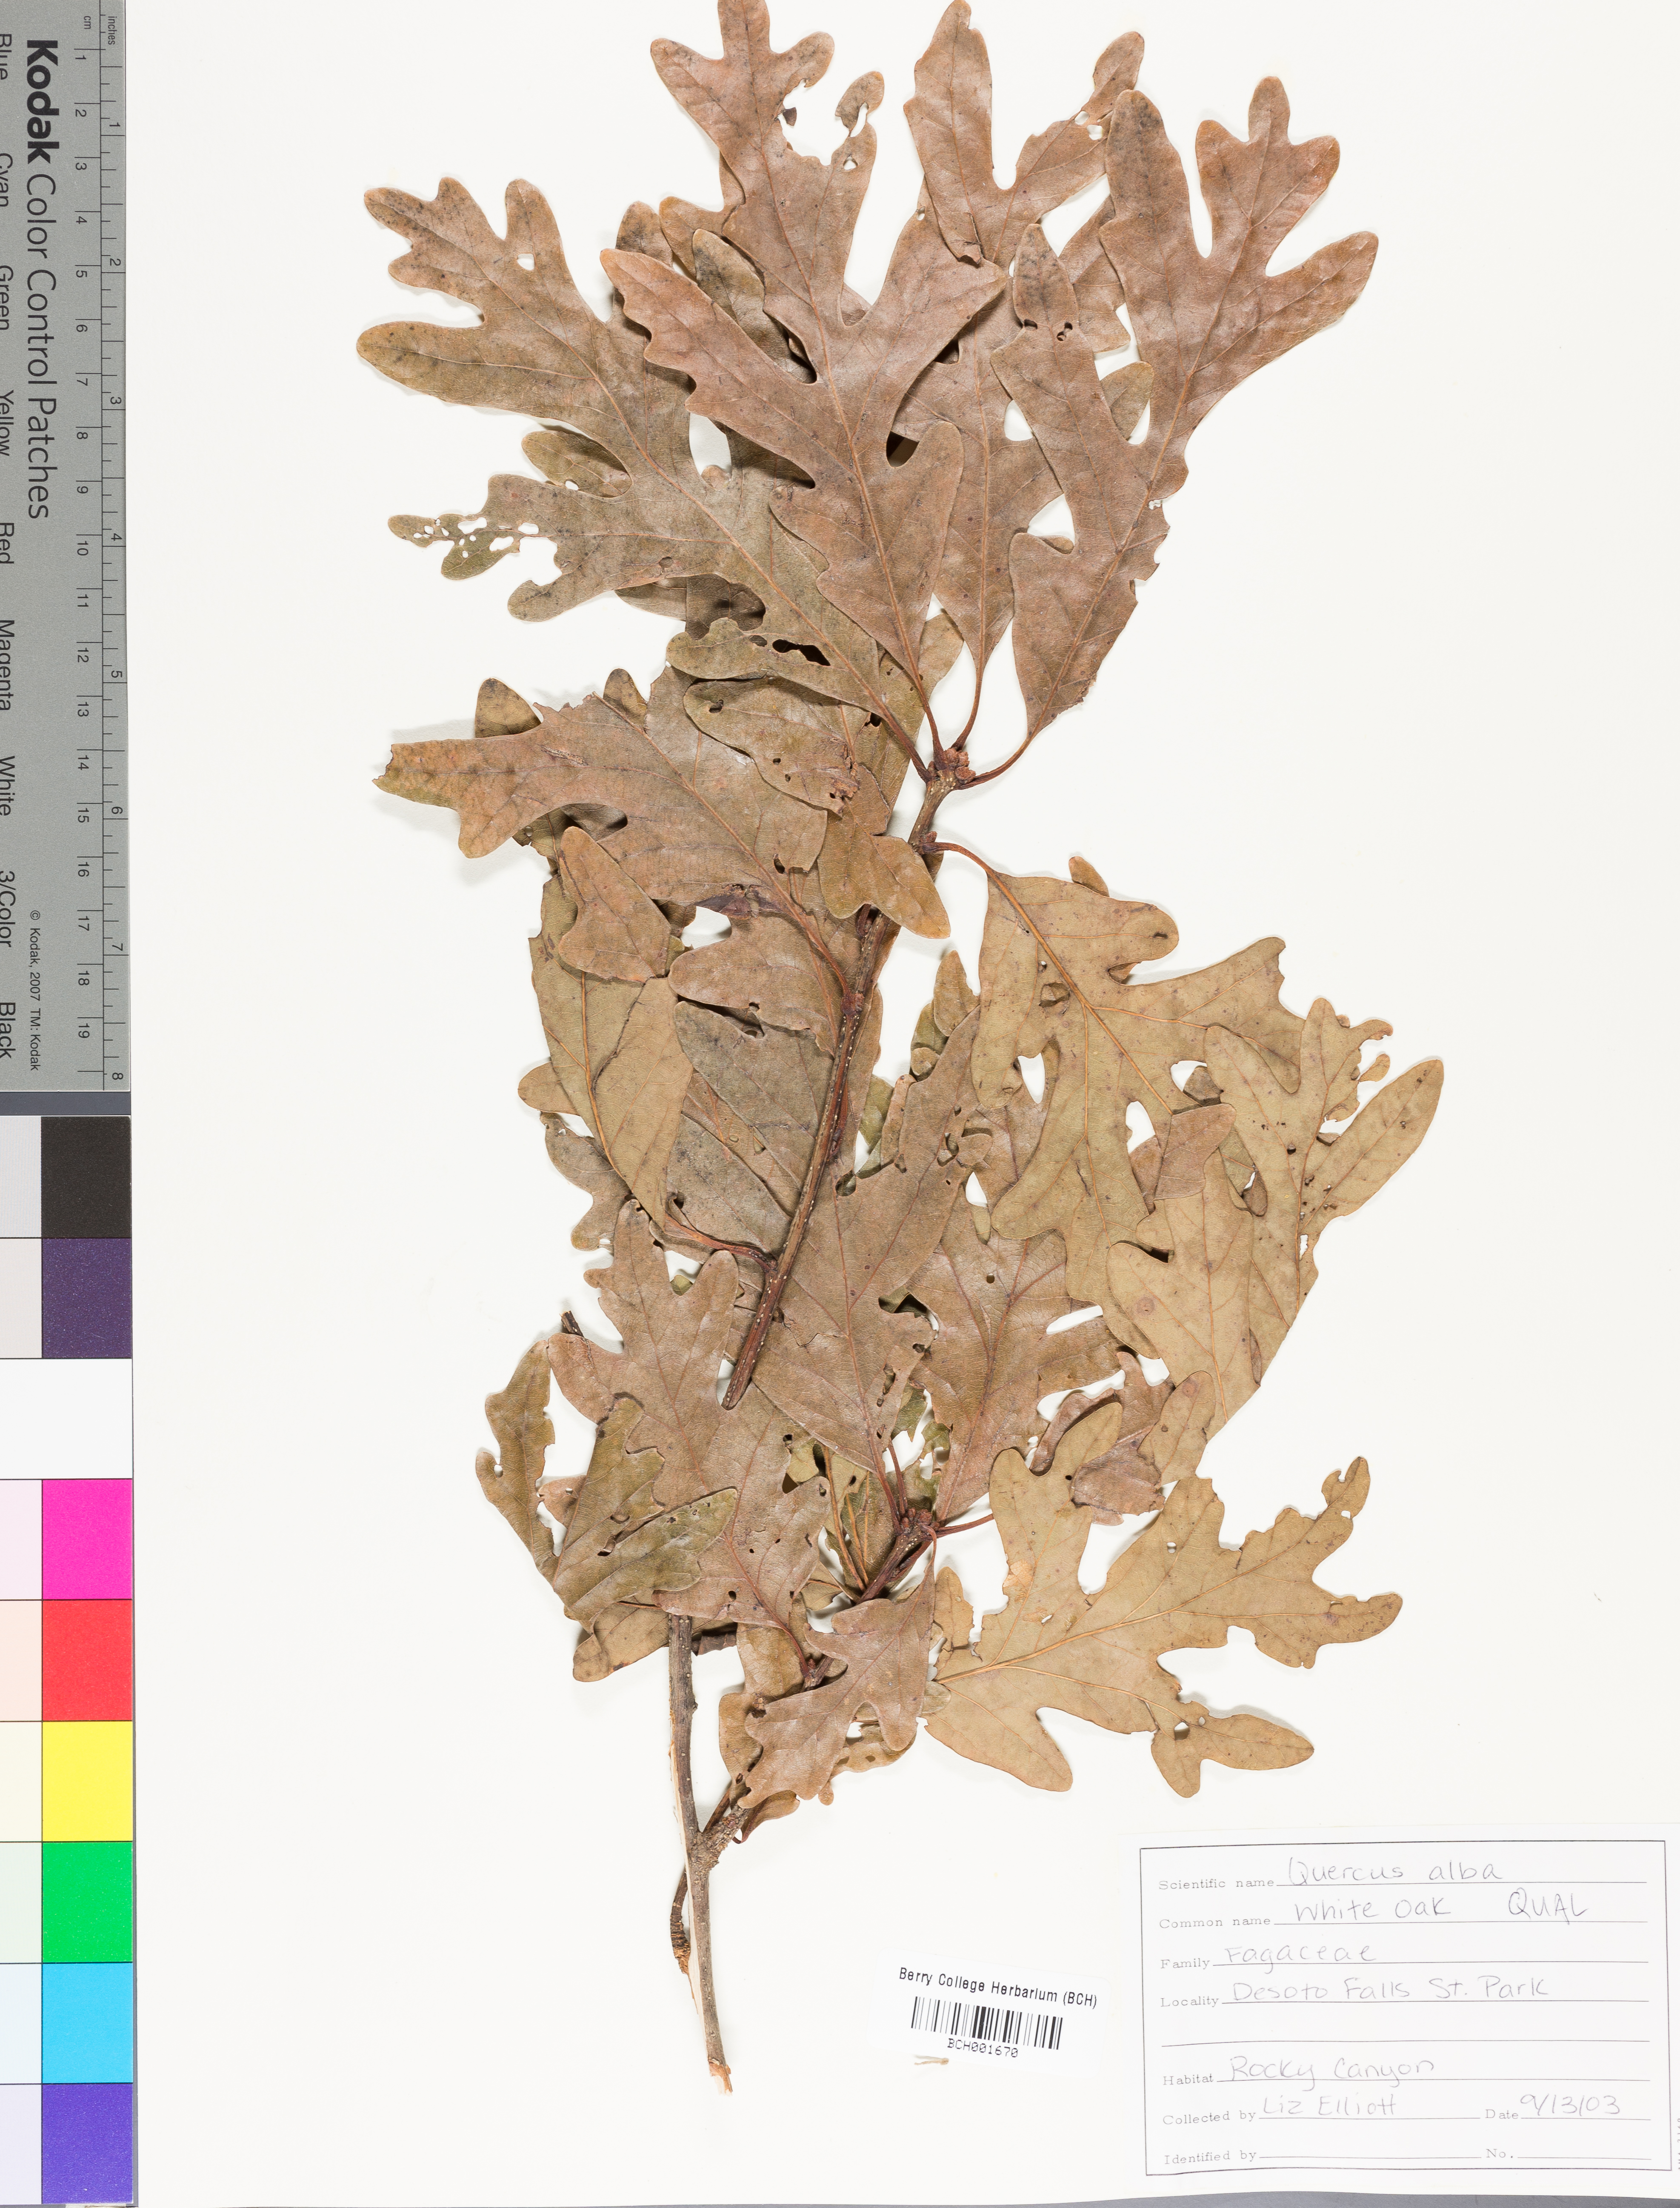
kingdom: Plantae
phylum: Tracheophyta
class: Magnoliopsida
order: Fagales
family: Fagaceae
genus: Quercus
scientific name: Quercus alba
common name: White oak
